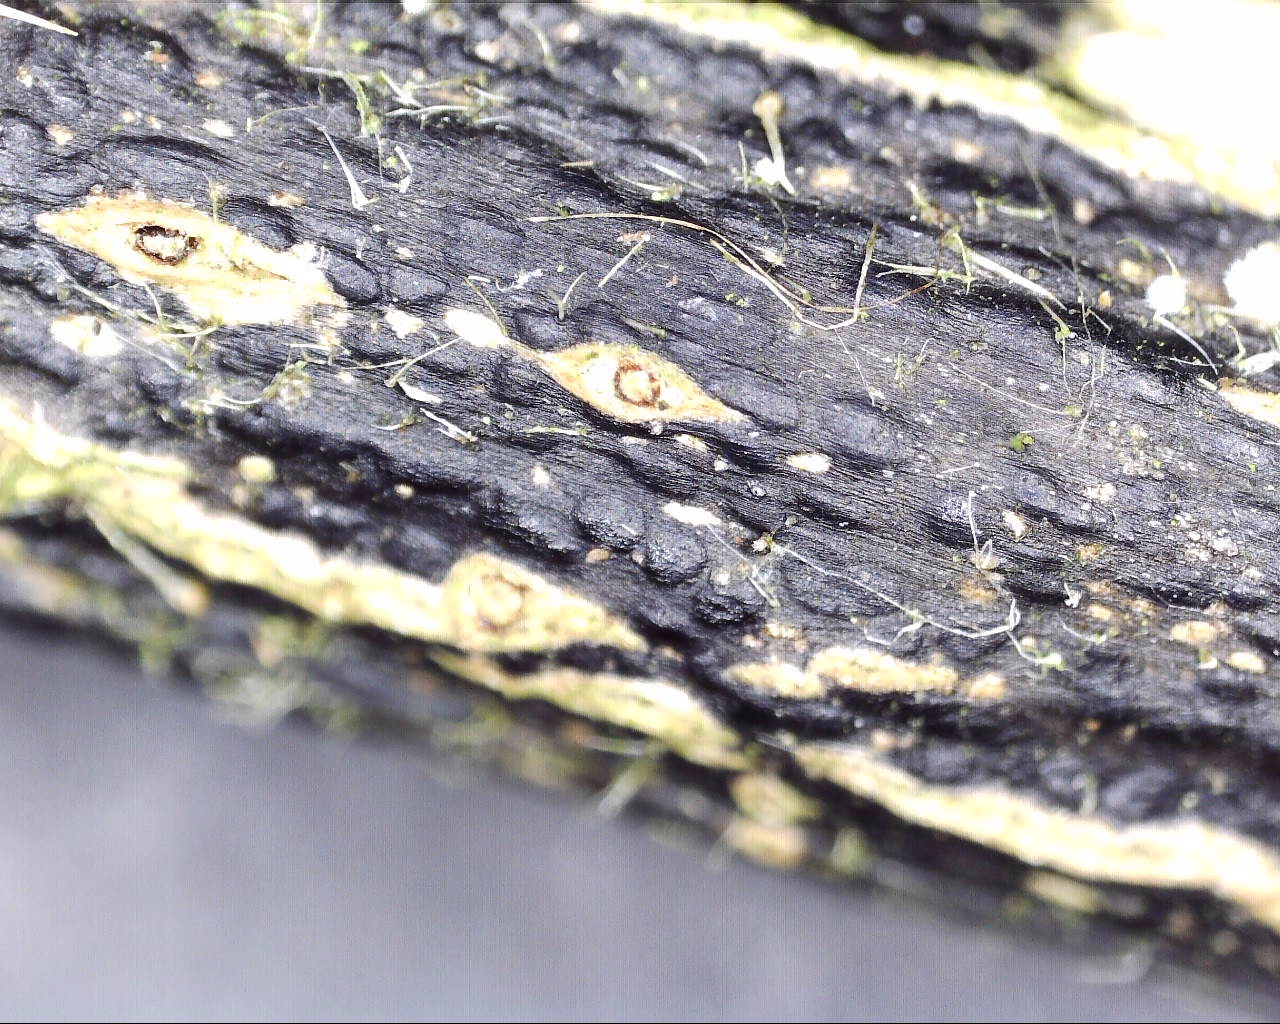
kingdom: Fungi
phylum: Ascomycota
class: Sordariomycetes
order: Diaporthales
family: Diaporthaceae
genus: Diaporthopsis
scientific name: Diaporthopsis urticae
